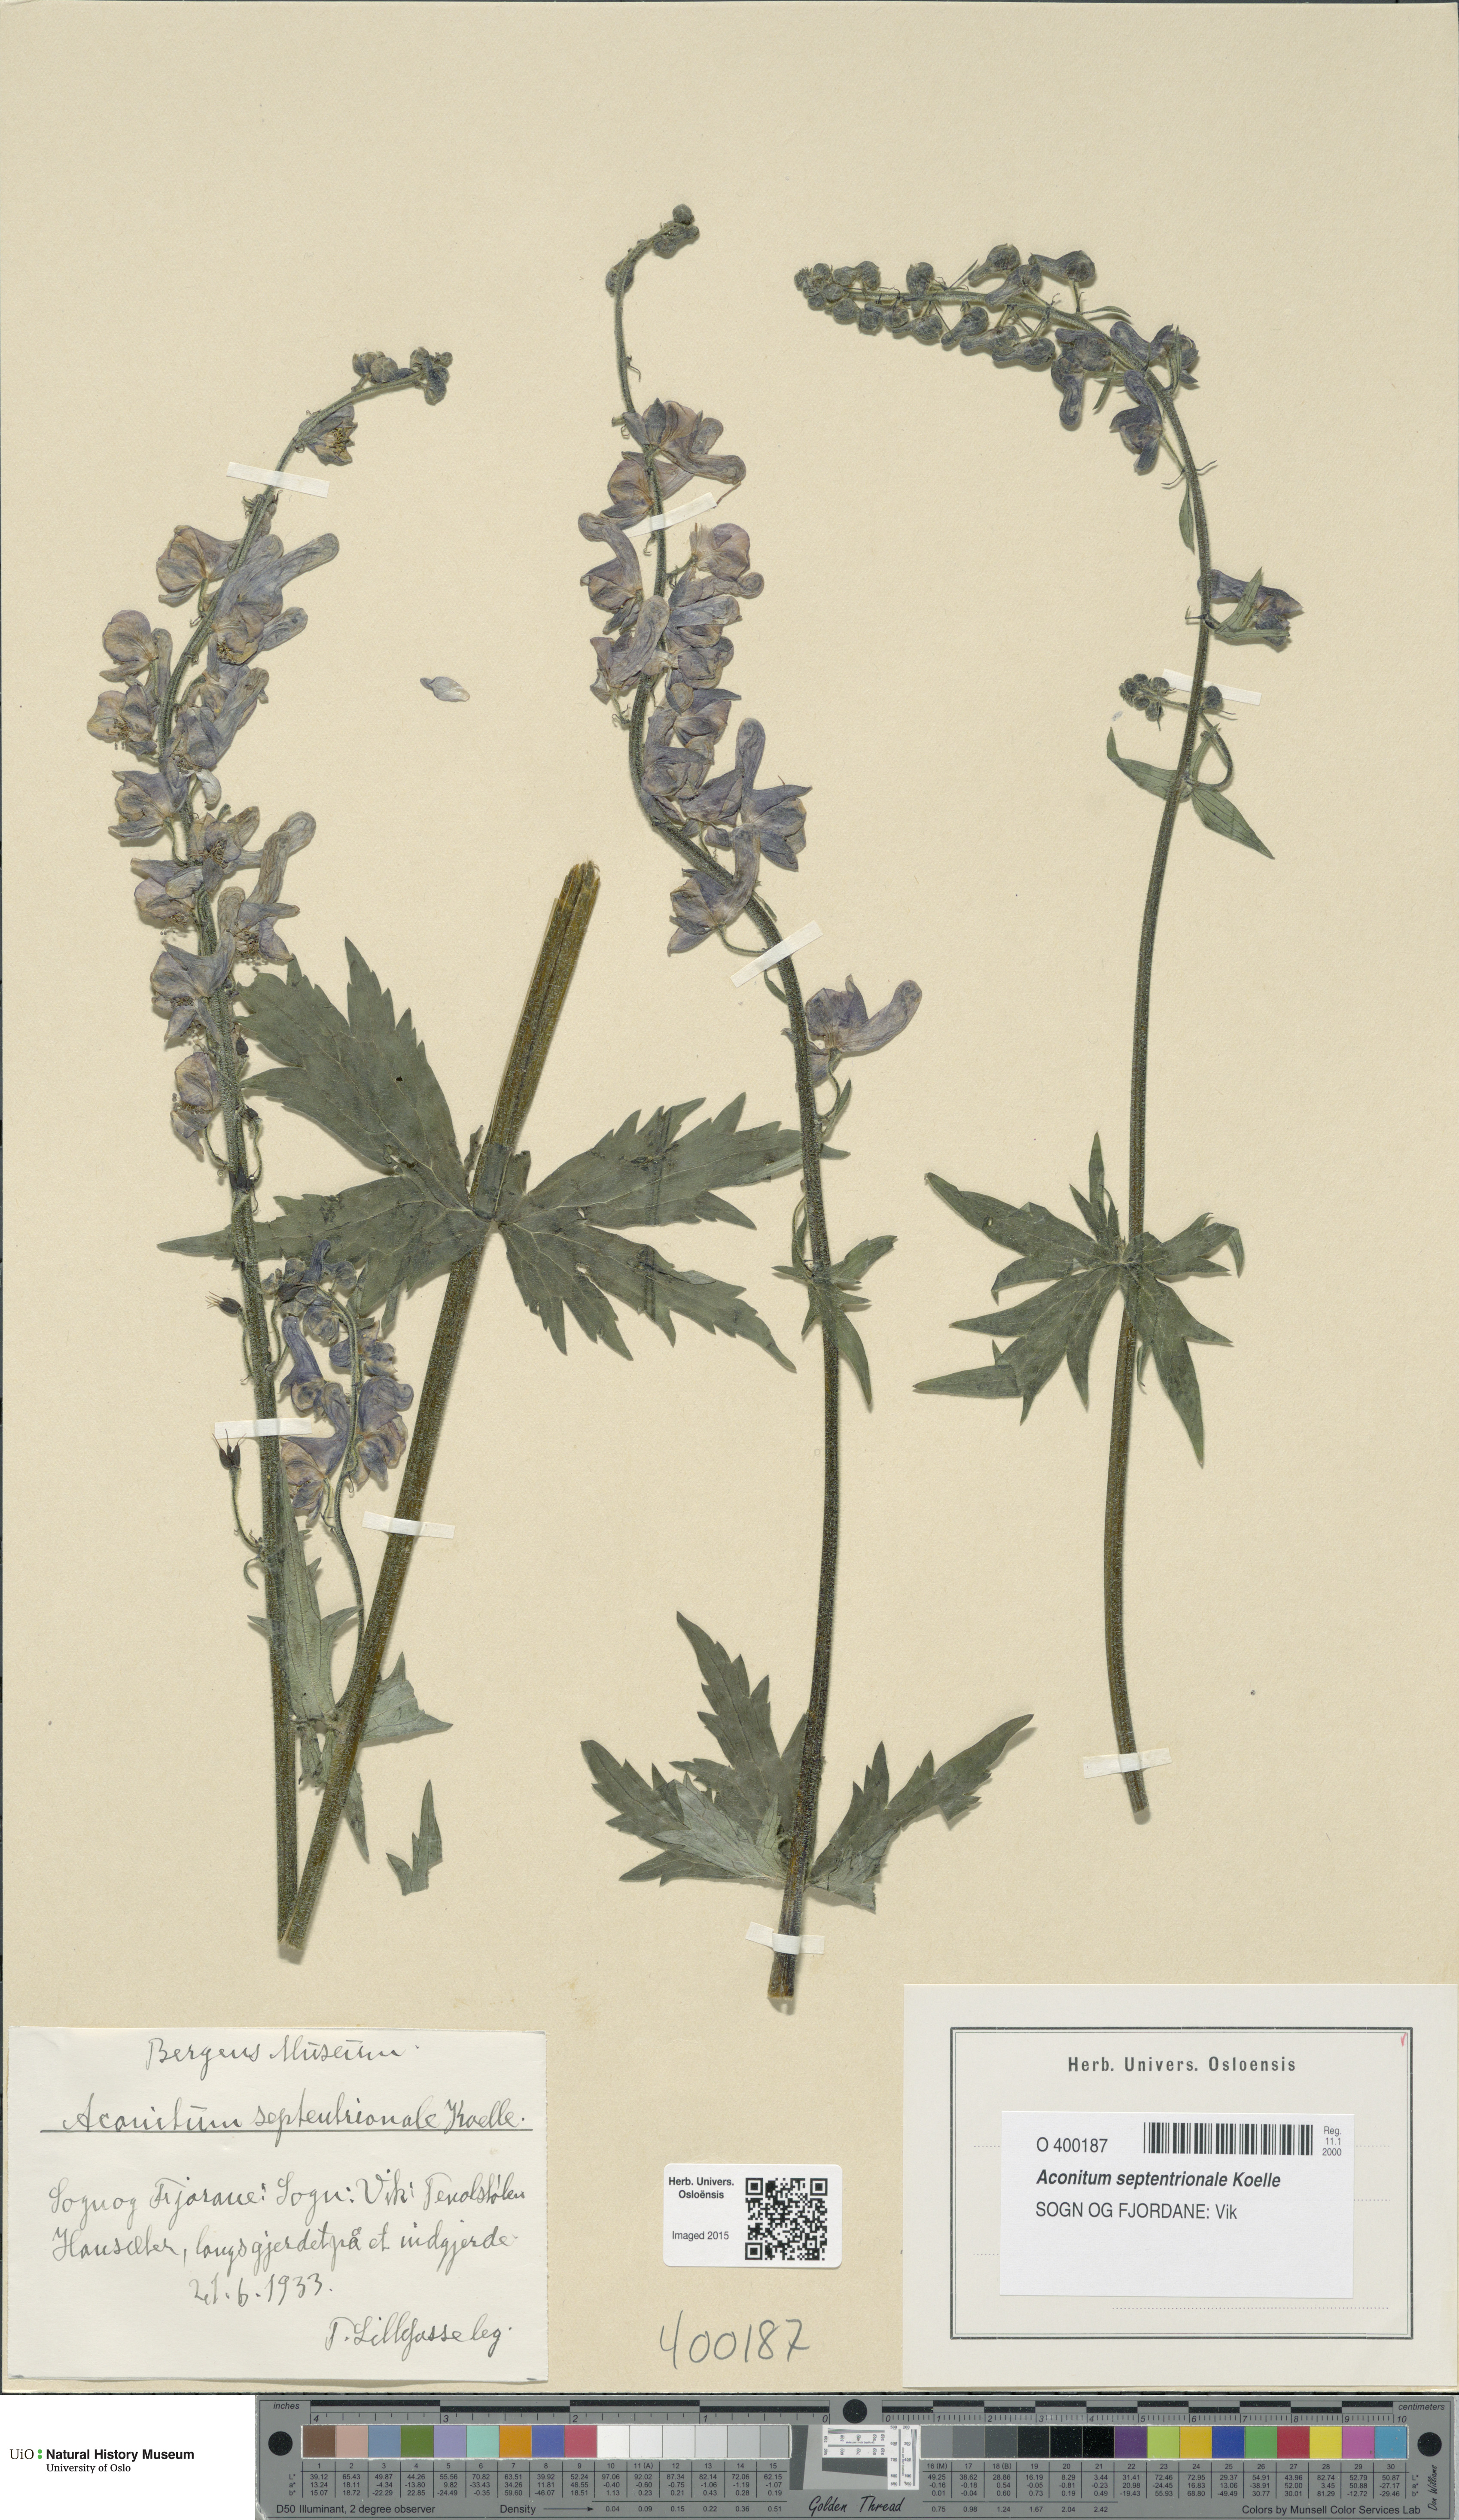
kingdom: Plantae
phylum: Tracheophyta
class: Magnoliopsida
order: Ranunculales
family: Ranunculaceae
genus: Aconitum
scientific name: Aconitum septentrionale
